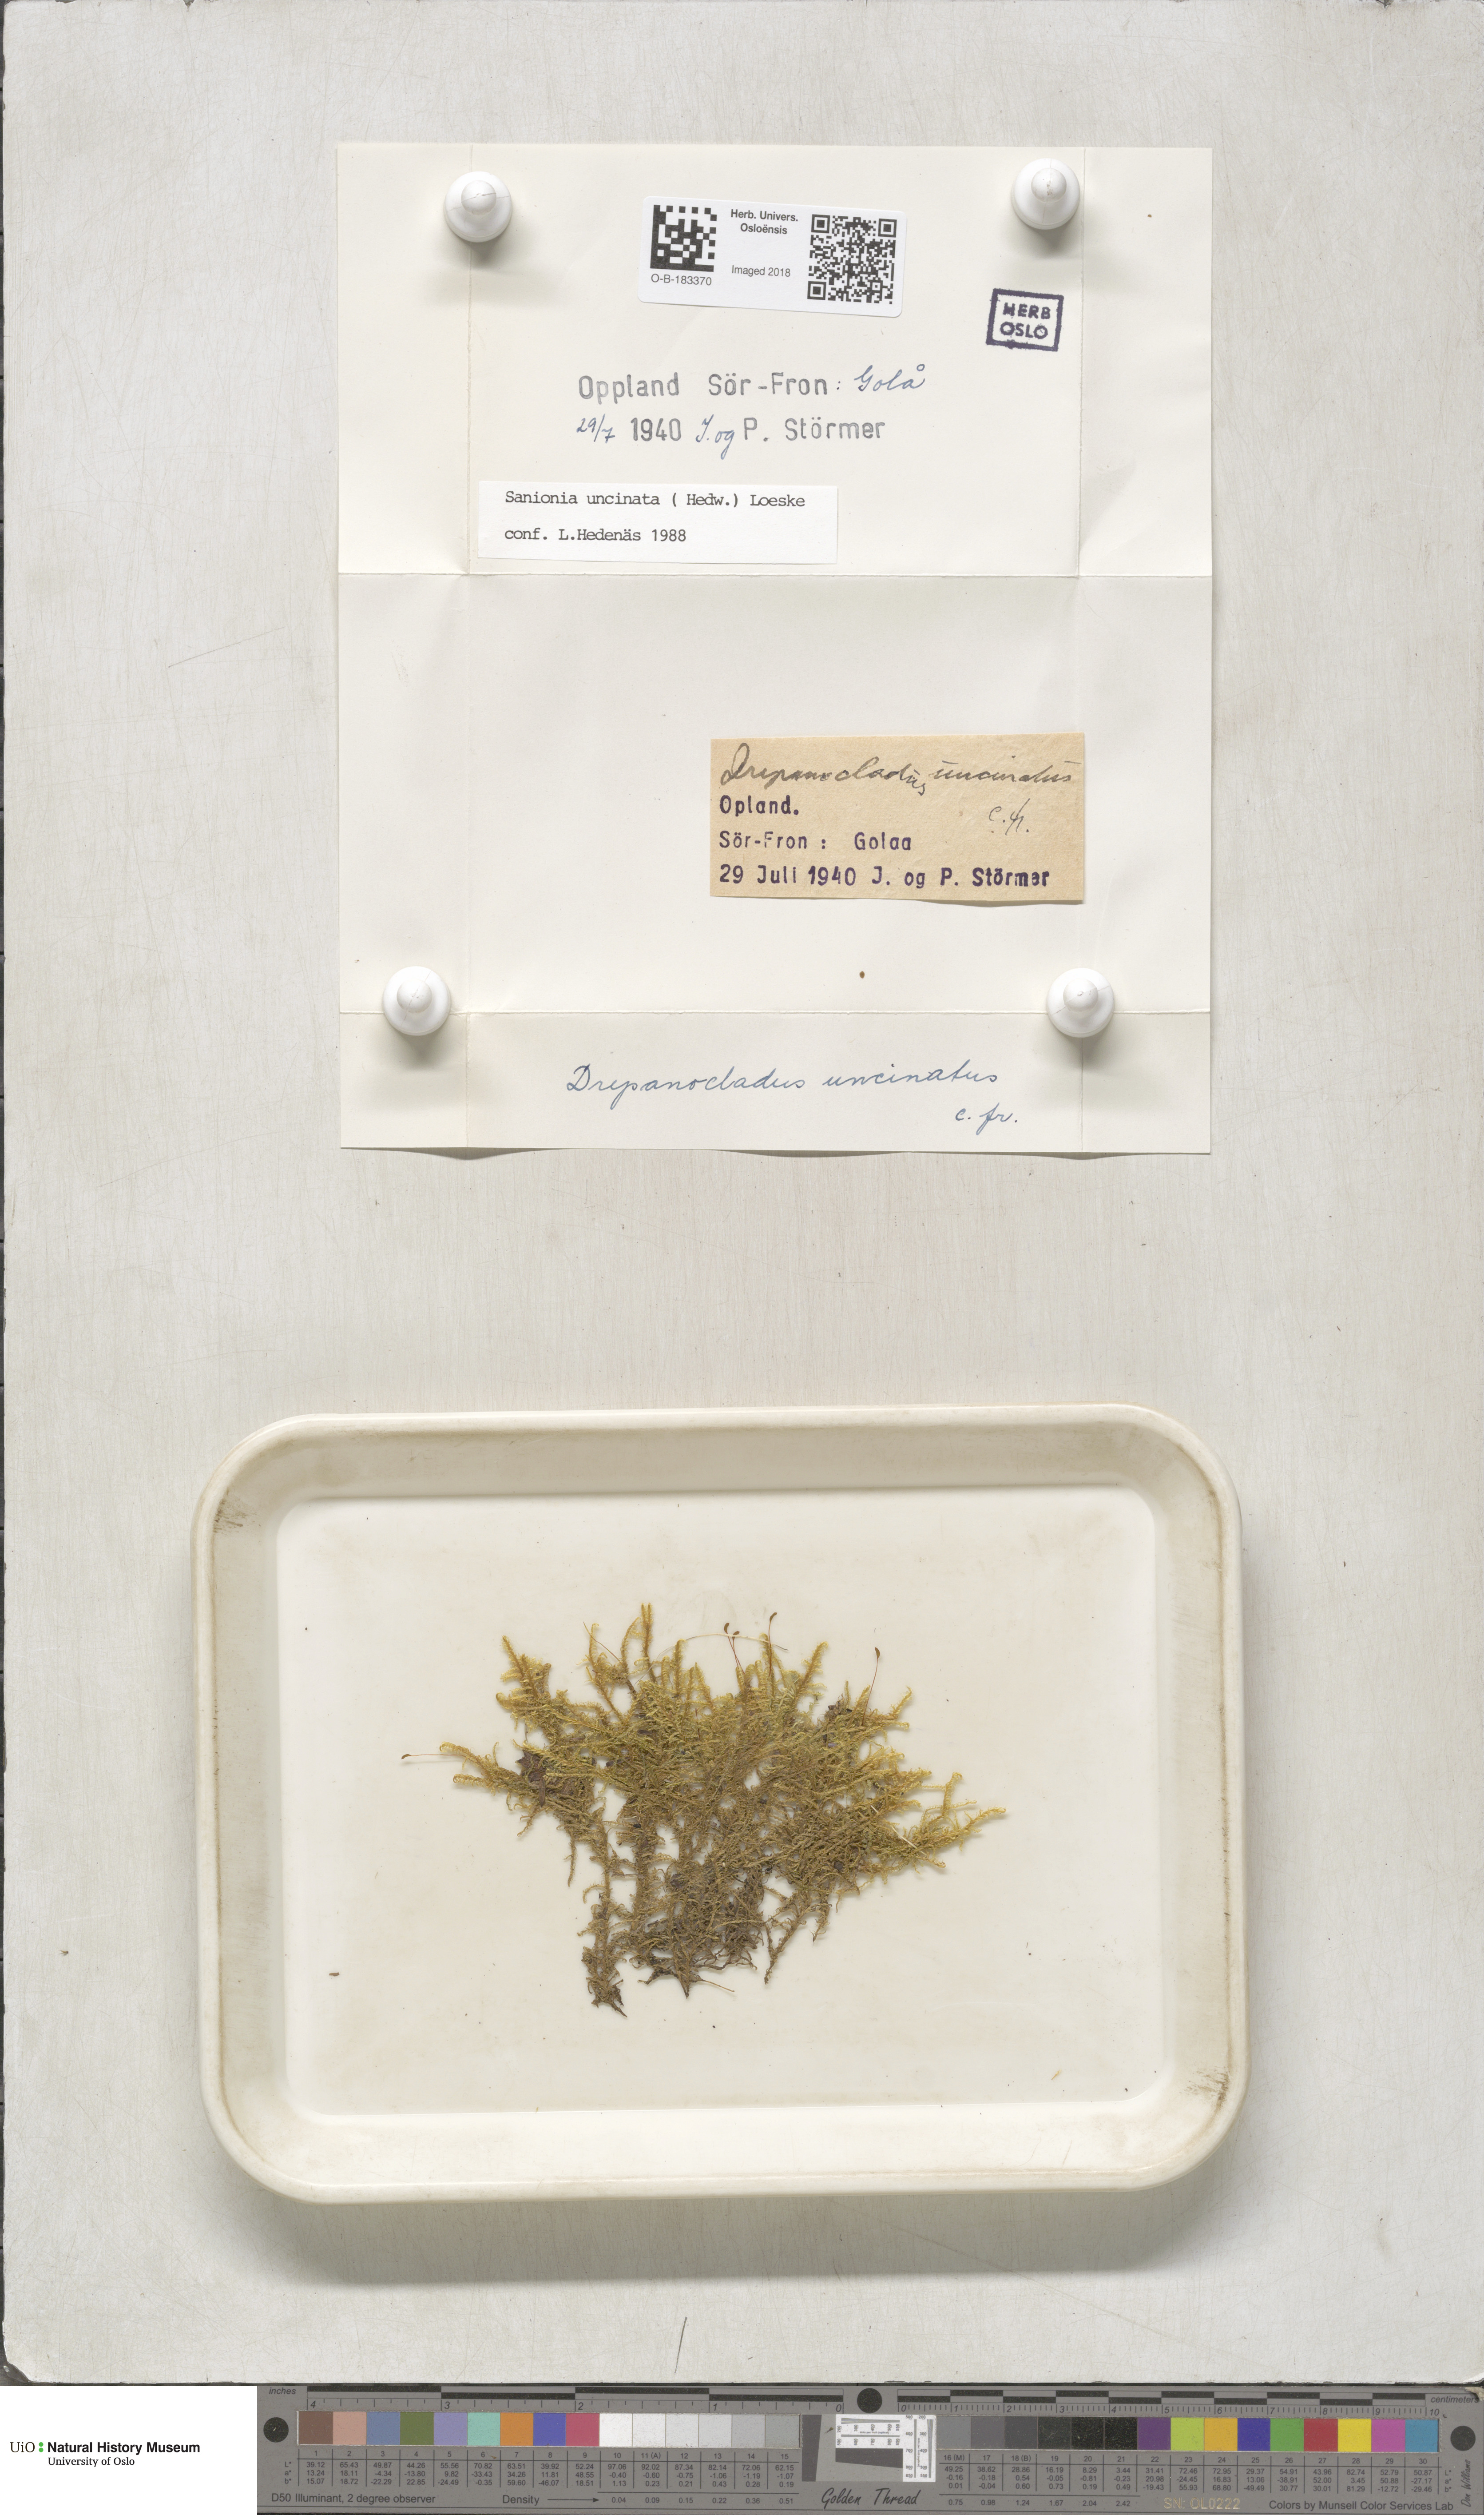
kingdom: Plantae
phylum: Bryophyta
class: Bryopsida
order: Hypnales
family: Scorpidiaceae
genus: Sanionia
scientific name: Sanionia uncinata
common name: Sickle moss
